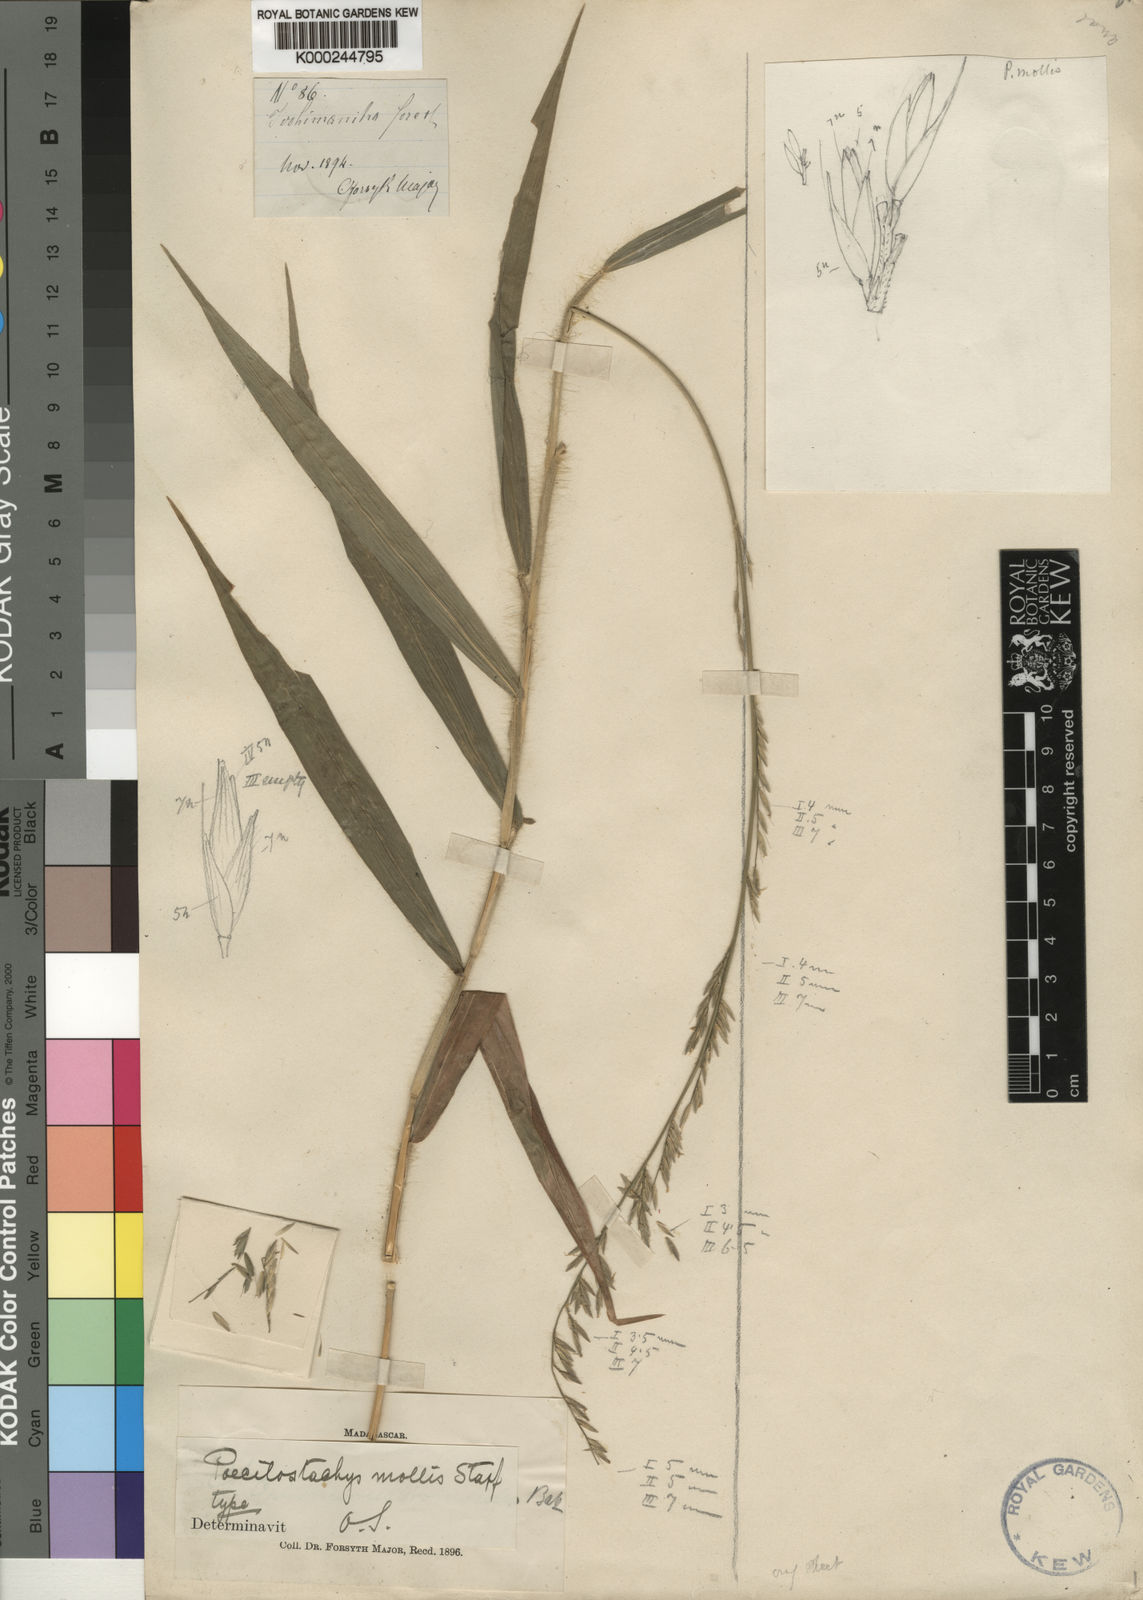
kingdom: Plantae
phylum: Tracheophyta
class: Liliopsida
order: Poales
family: Poaceae
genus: Poecilostachys
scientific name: Poecilostachys mollis
